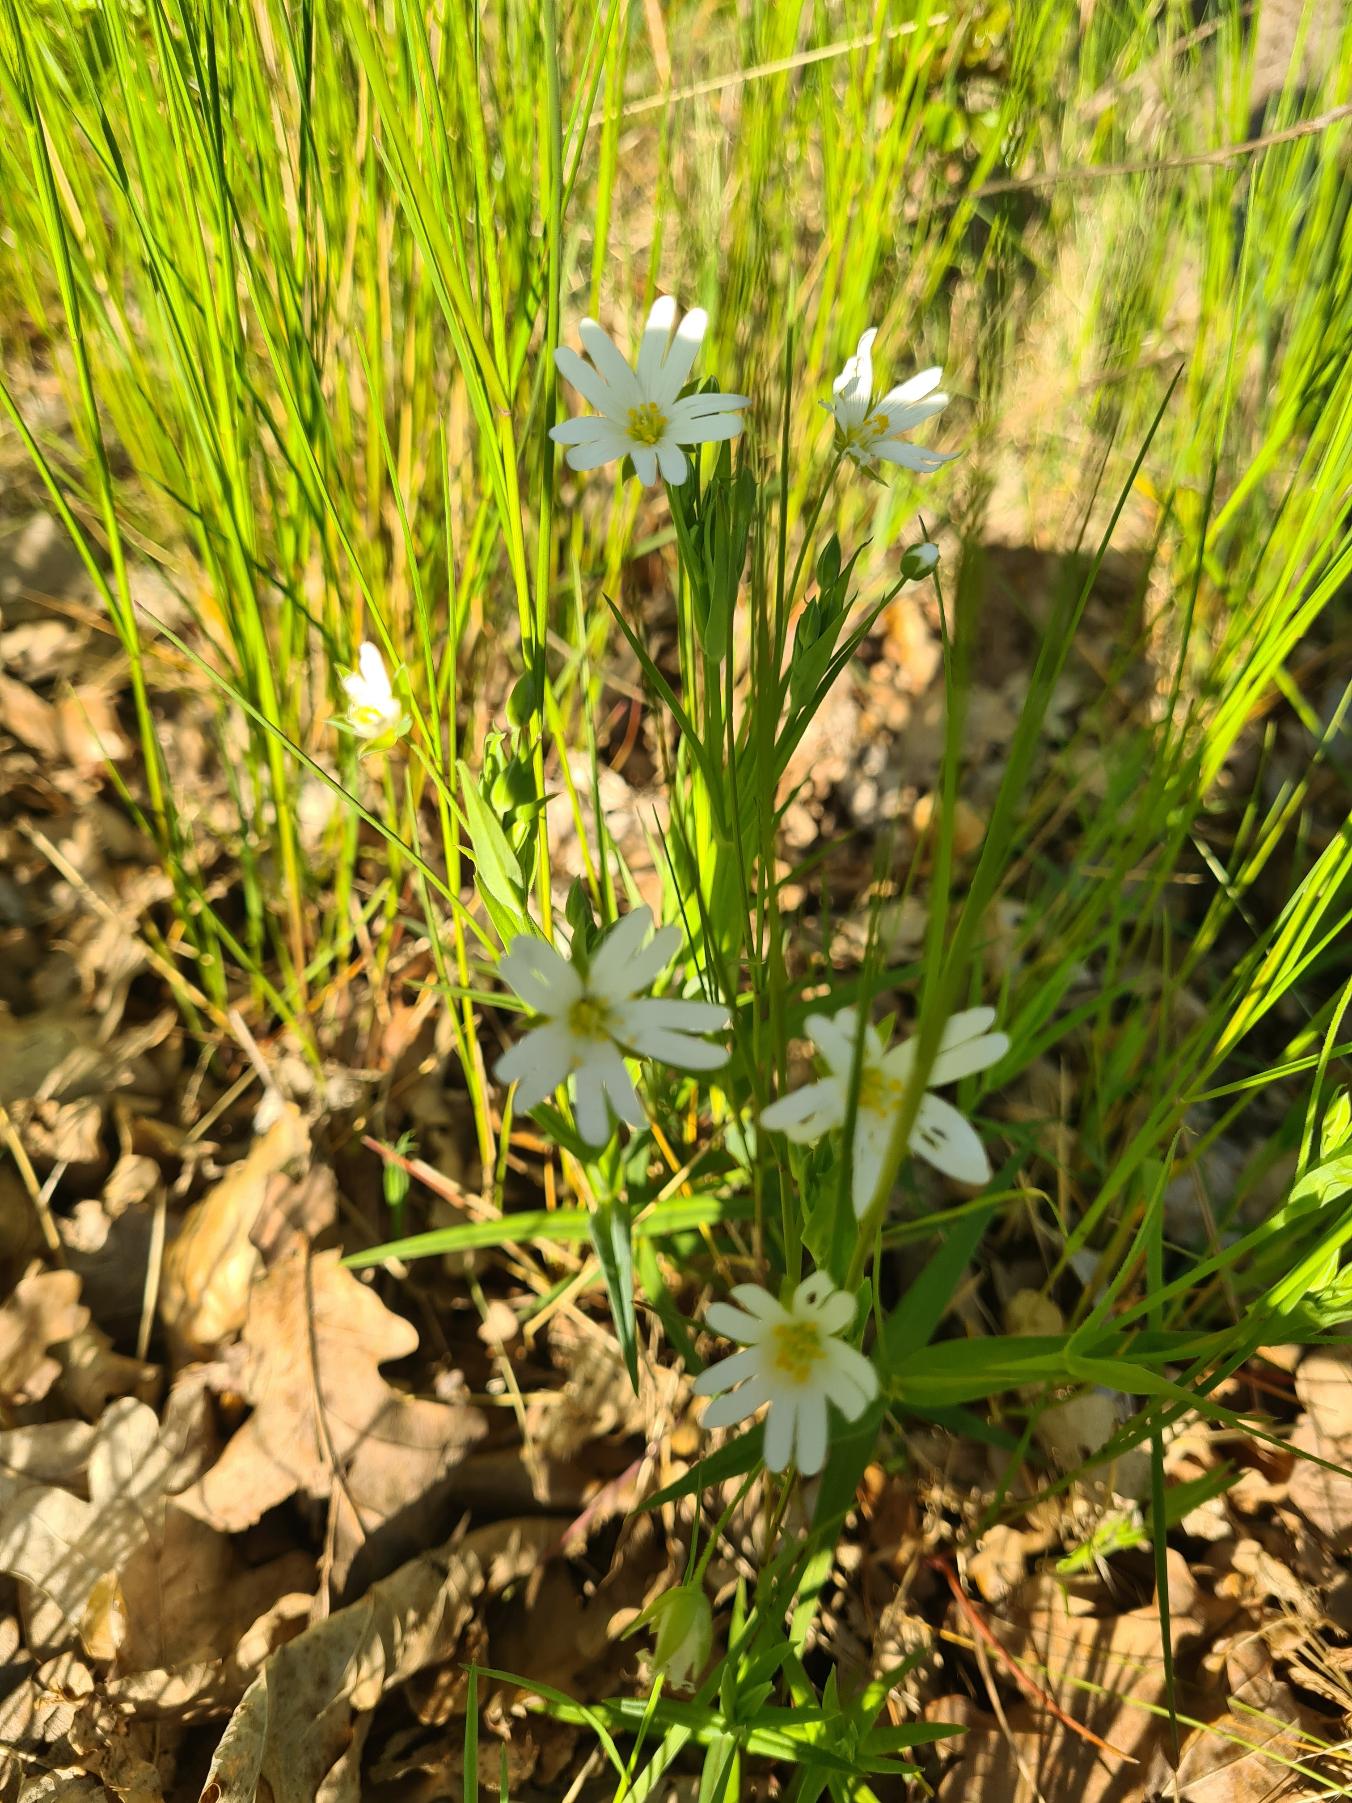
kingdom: Plantae
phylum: Tracheophyta
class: Magnoliopsida
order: Caryophyllales
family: Caryophyllaceae
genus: Rabelera
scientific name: Rabelera holostea
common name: Stor fladstjerne
